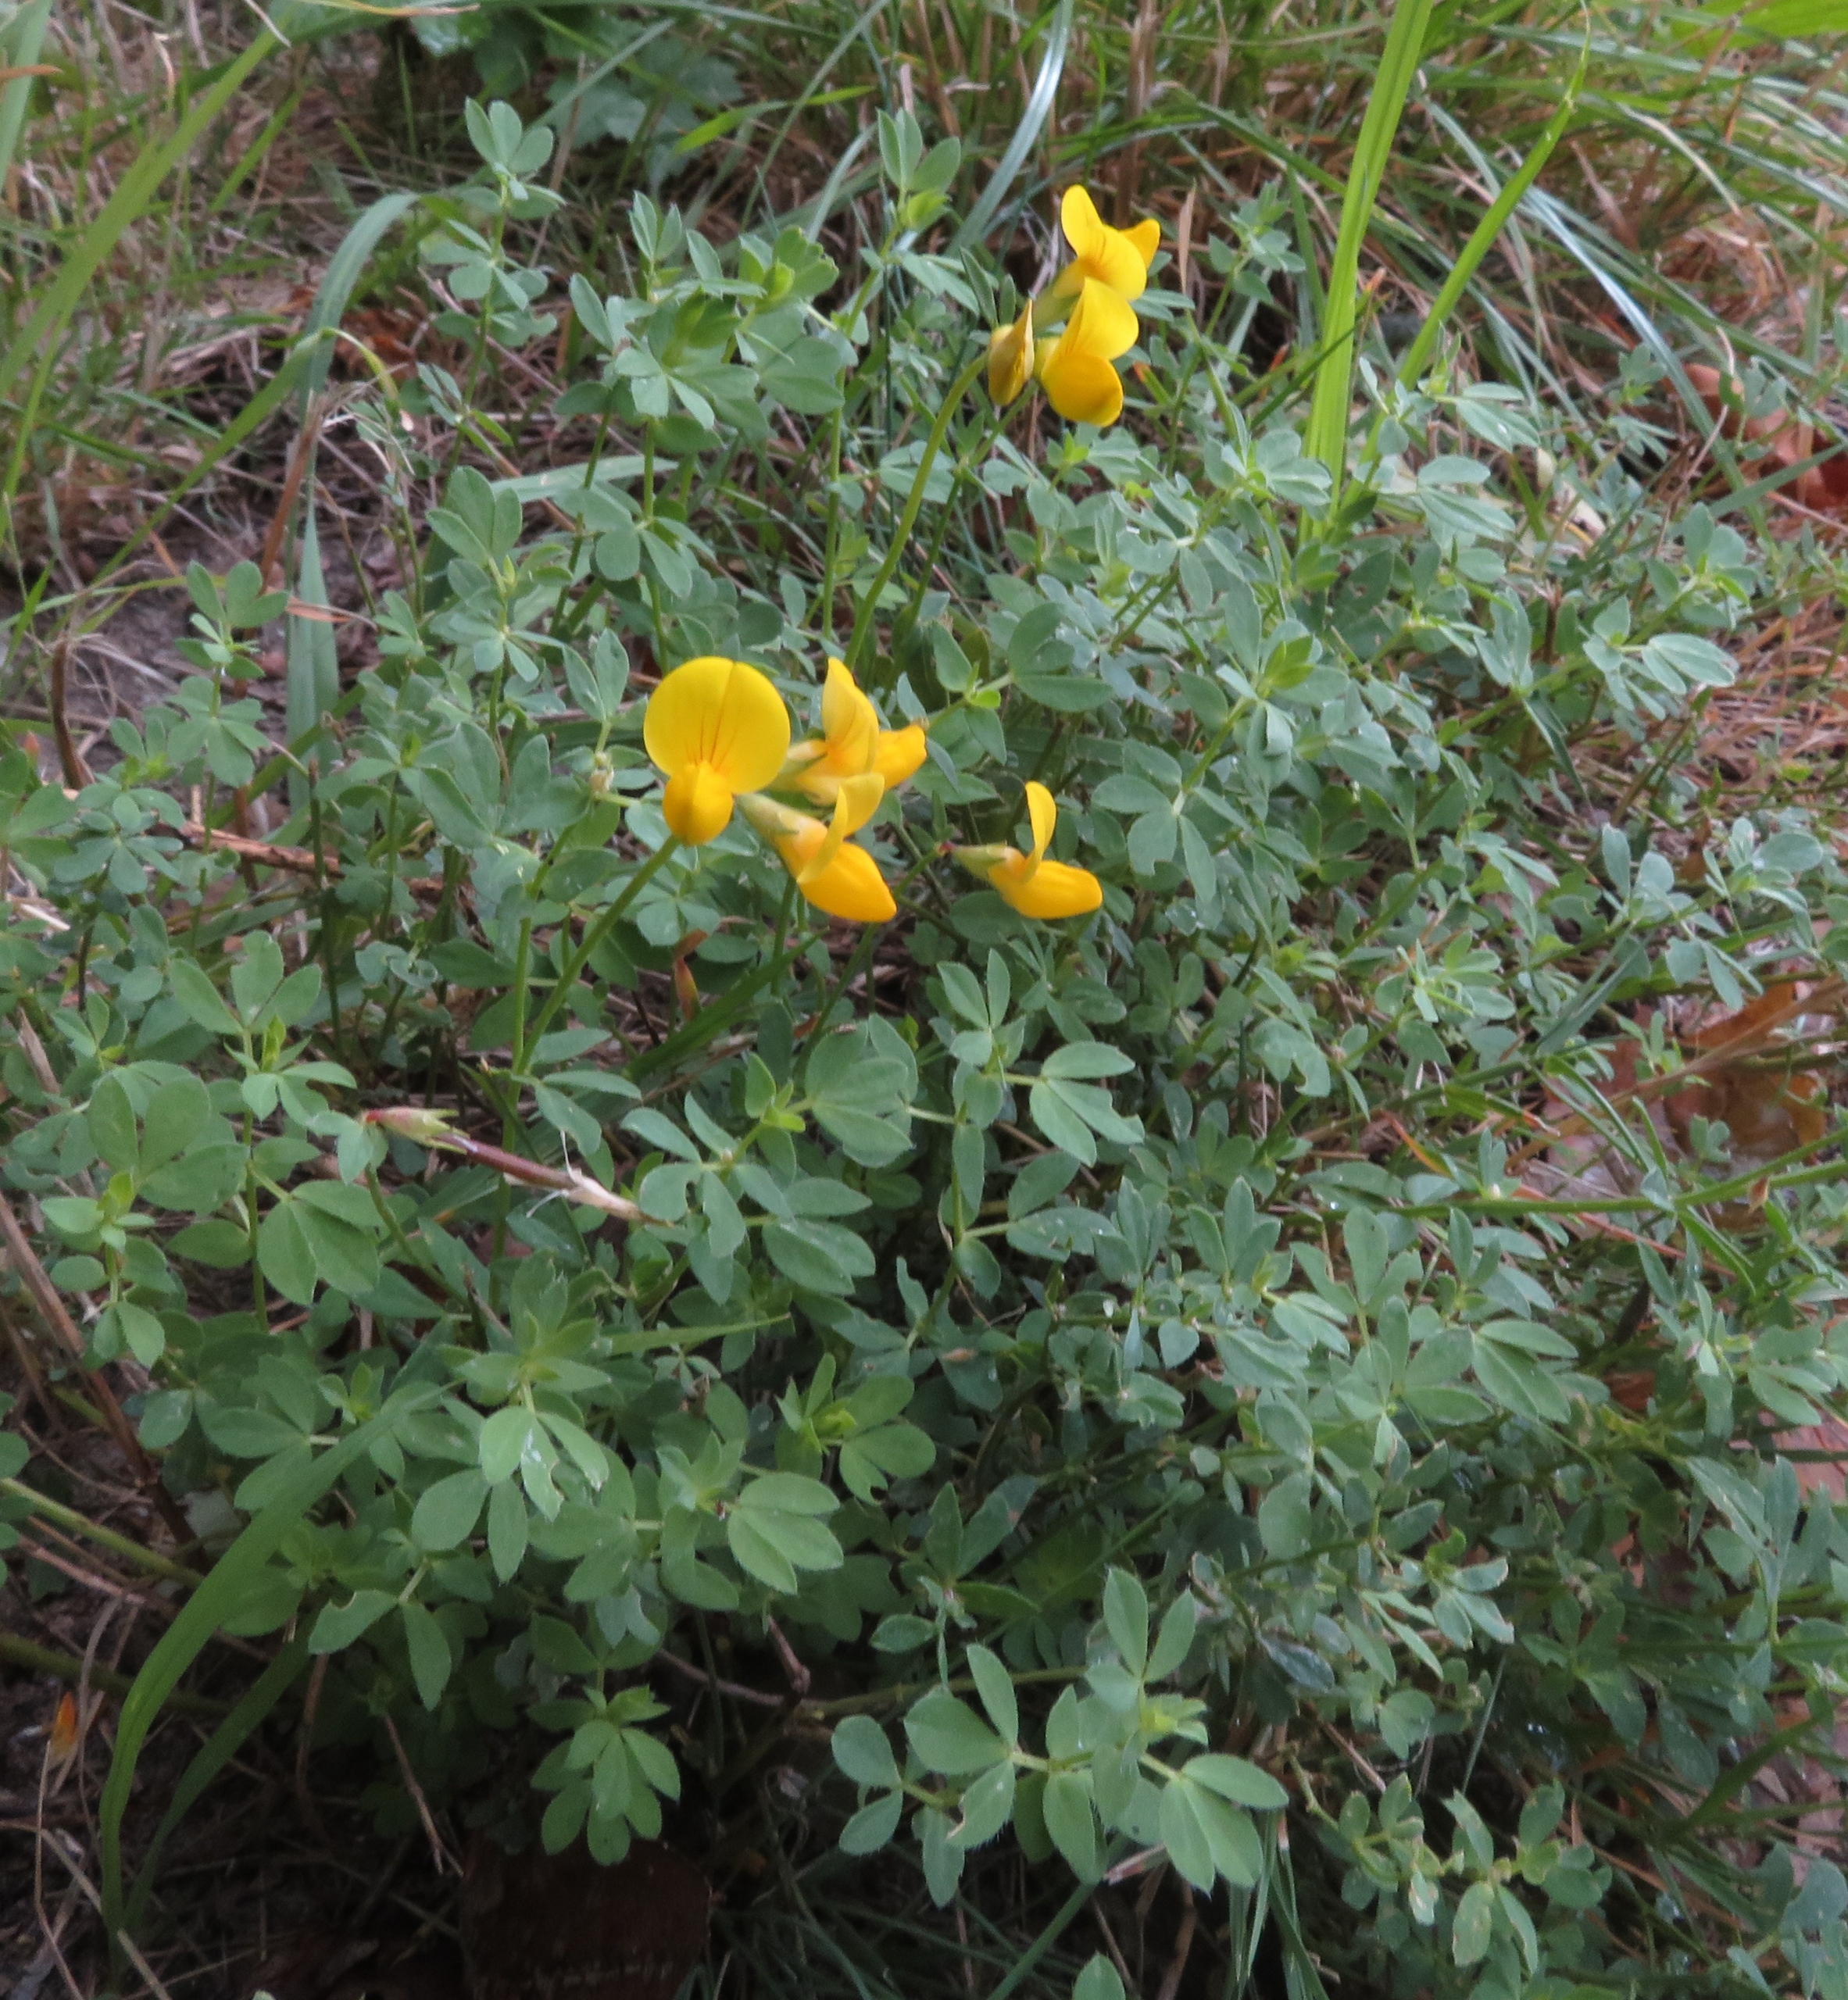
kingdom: Plantae
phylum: Tracheophyta
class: Magnoliopsida
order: Fabales
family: Fabaceae
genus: Lotus
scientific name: Lotus corniculatus
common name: Almindelig kællingetand
